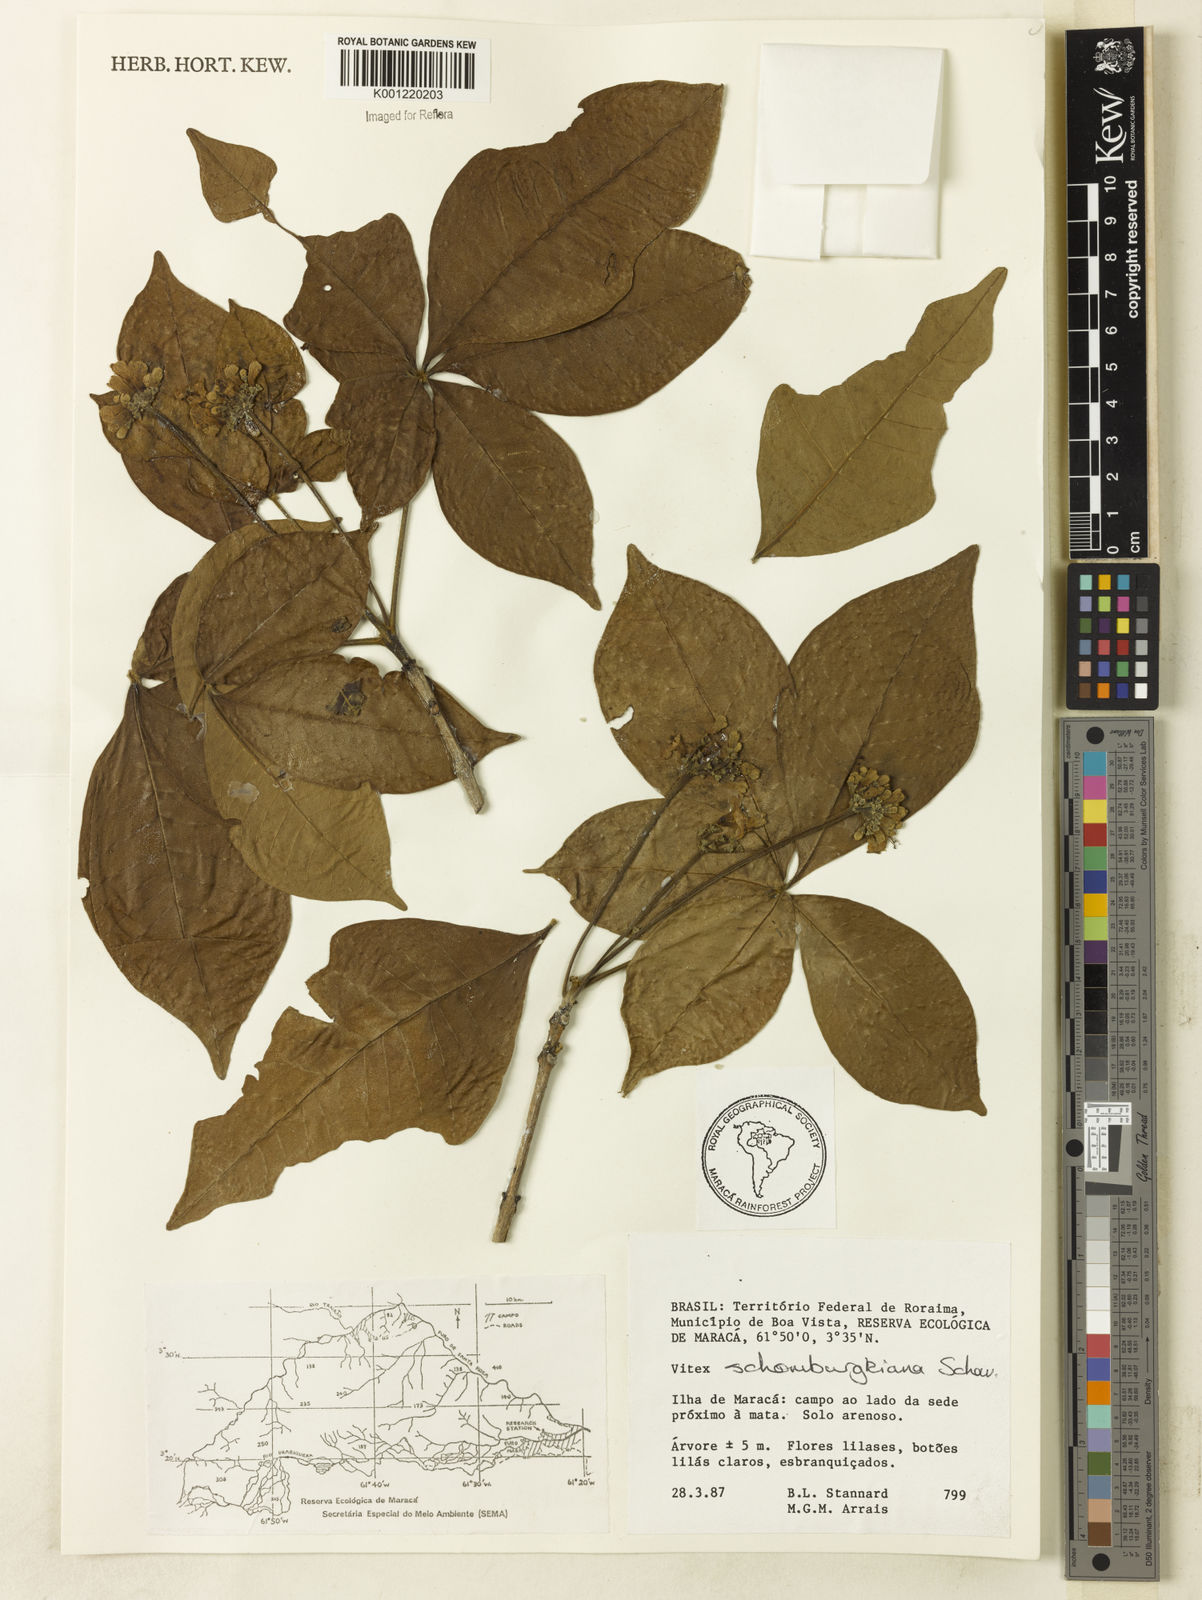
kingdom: Plantae
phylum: Tracheophyta
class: Magnoliopsida
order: Lamiales
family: Lamiaceae
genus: Vitex
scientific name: Vitex schomburgkiana
